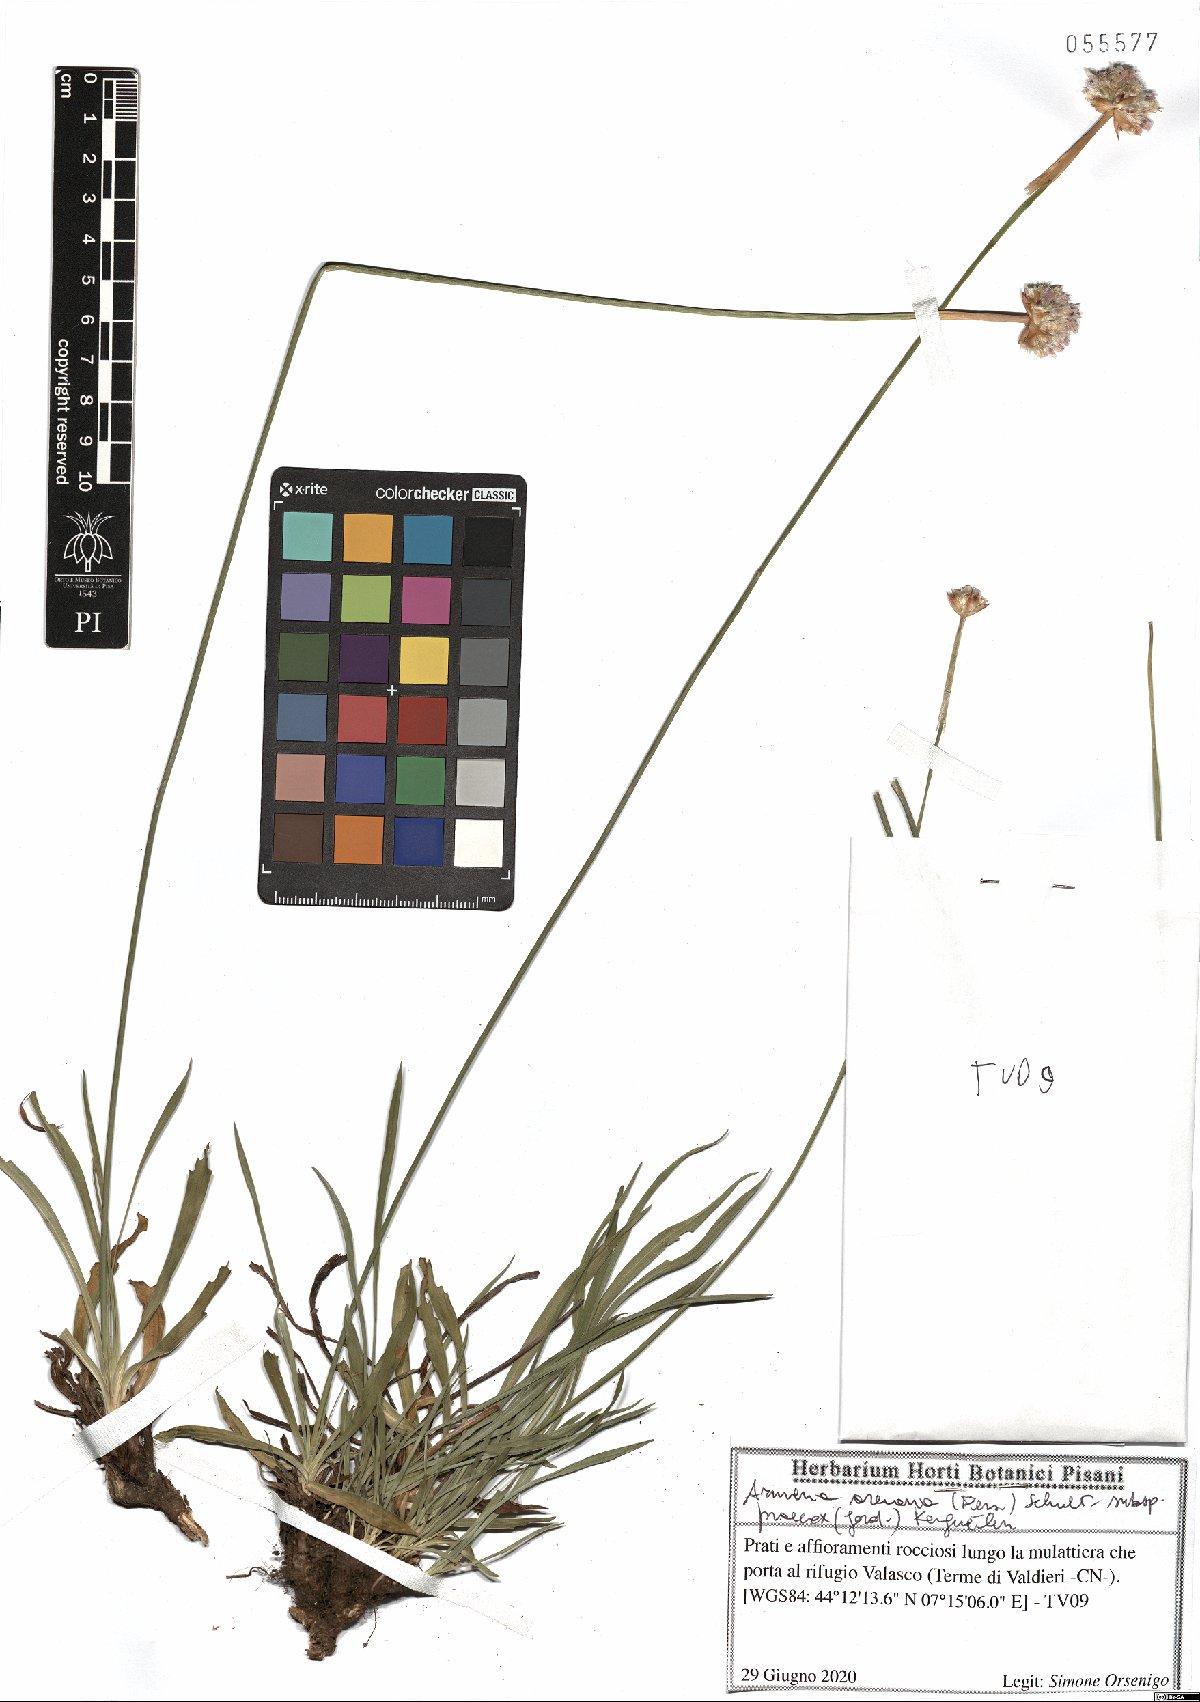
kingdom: Plantae
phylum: Tracheophyta
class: Magnoliopsida
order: Caryophyllales
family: Plumbaginaceae
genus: Armeria
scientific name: Armeria arenaria
